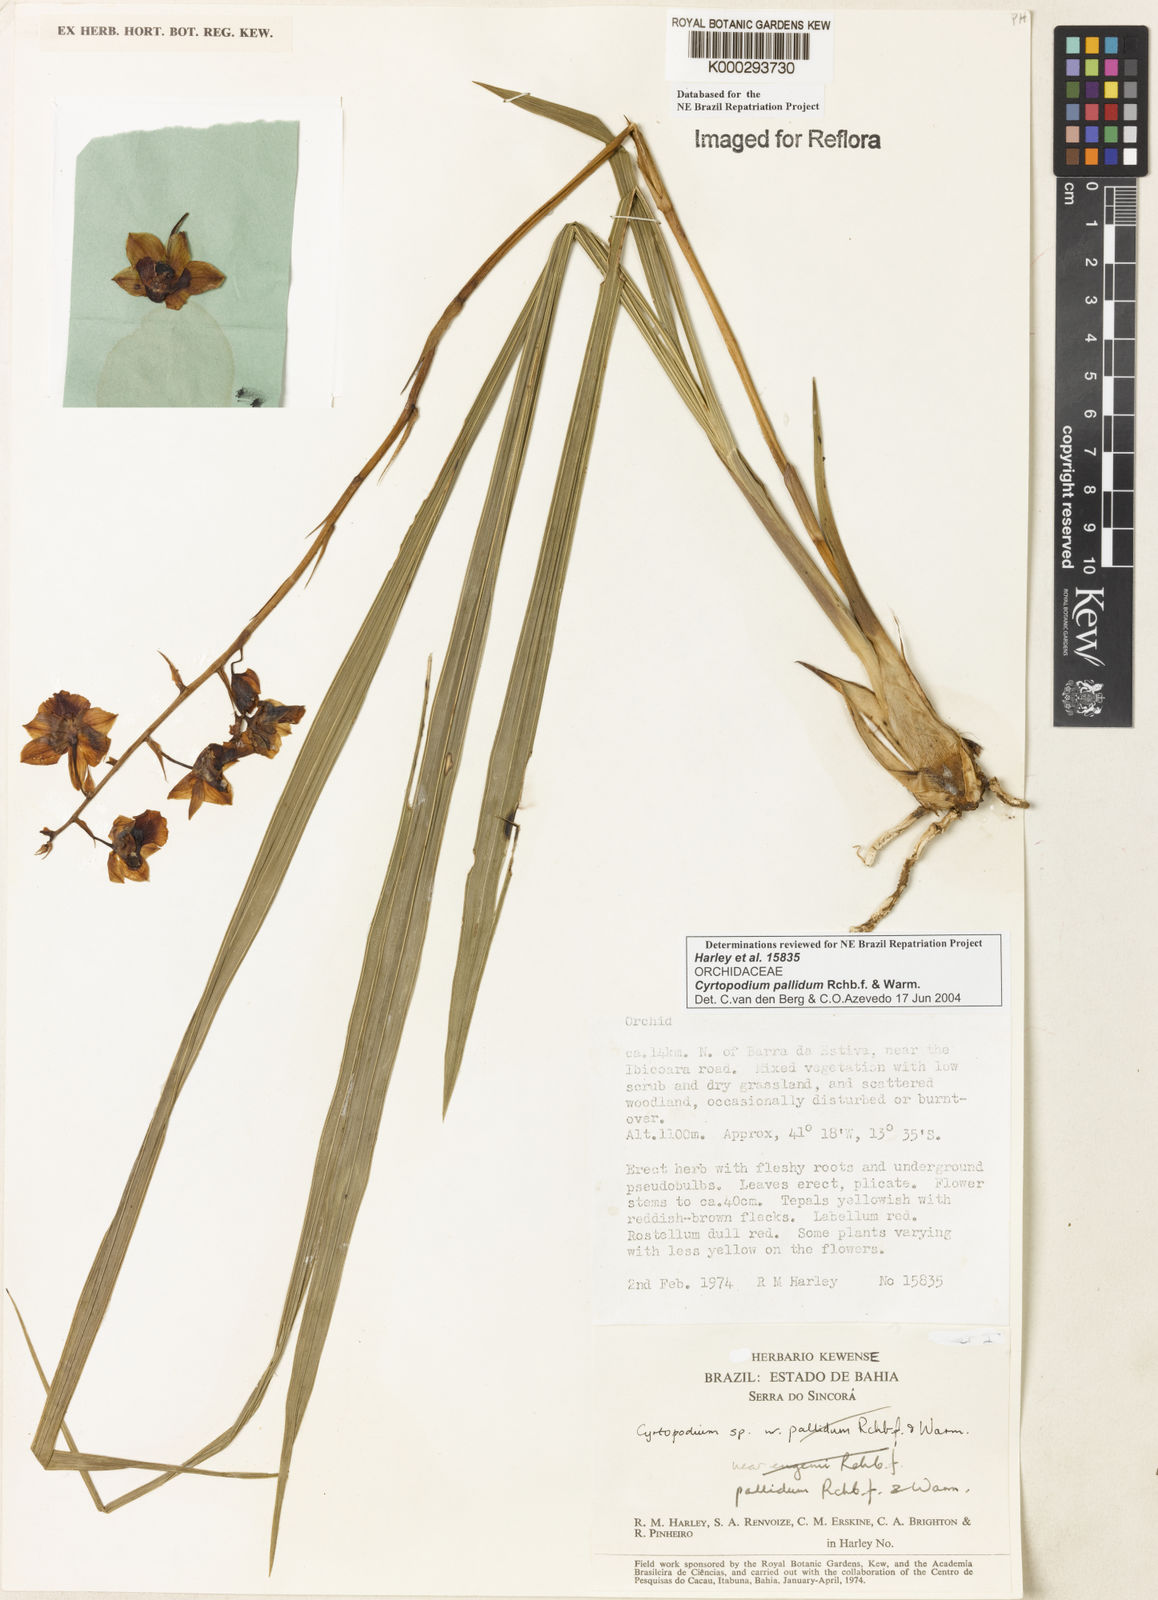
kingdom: Plantae
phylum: Tracheophyta
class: Liliopsida
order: Asparagales
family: Orchidaceae
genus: Cyrtopodium
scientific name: Cyrtopodium pallidum
